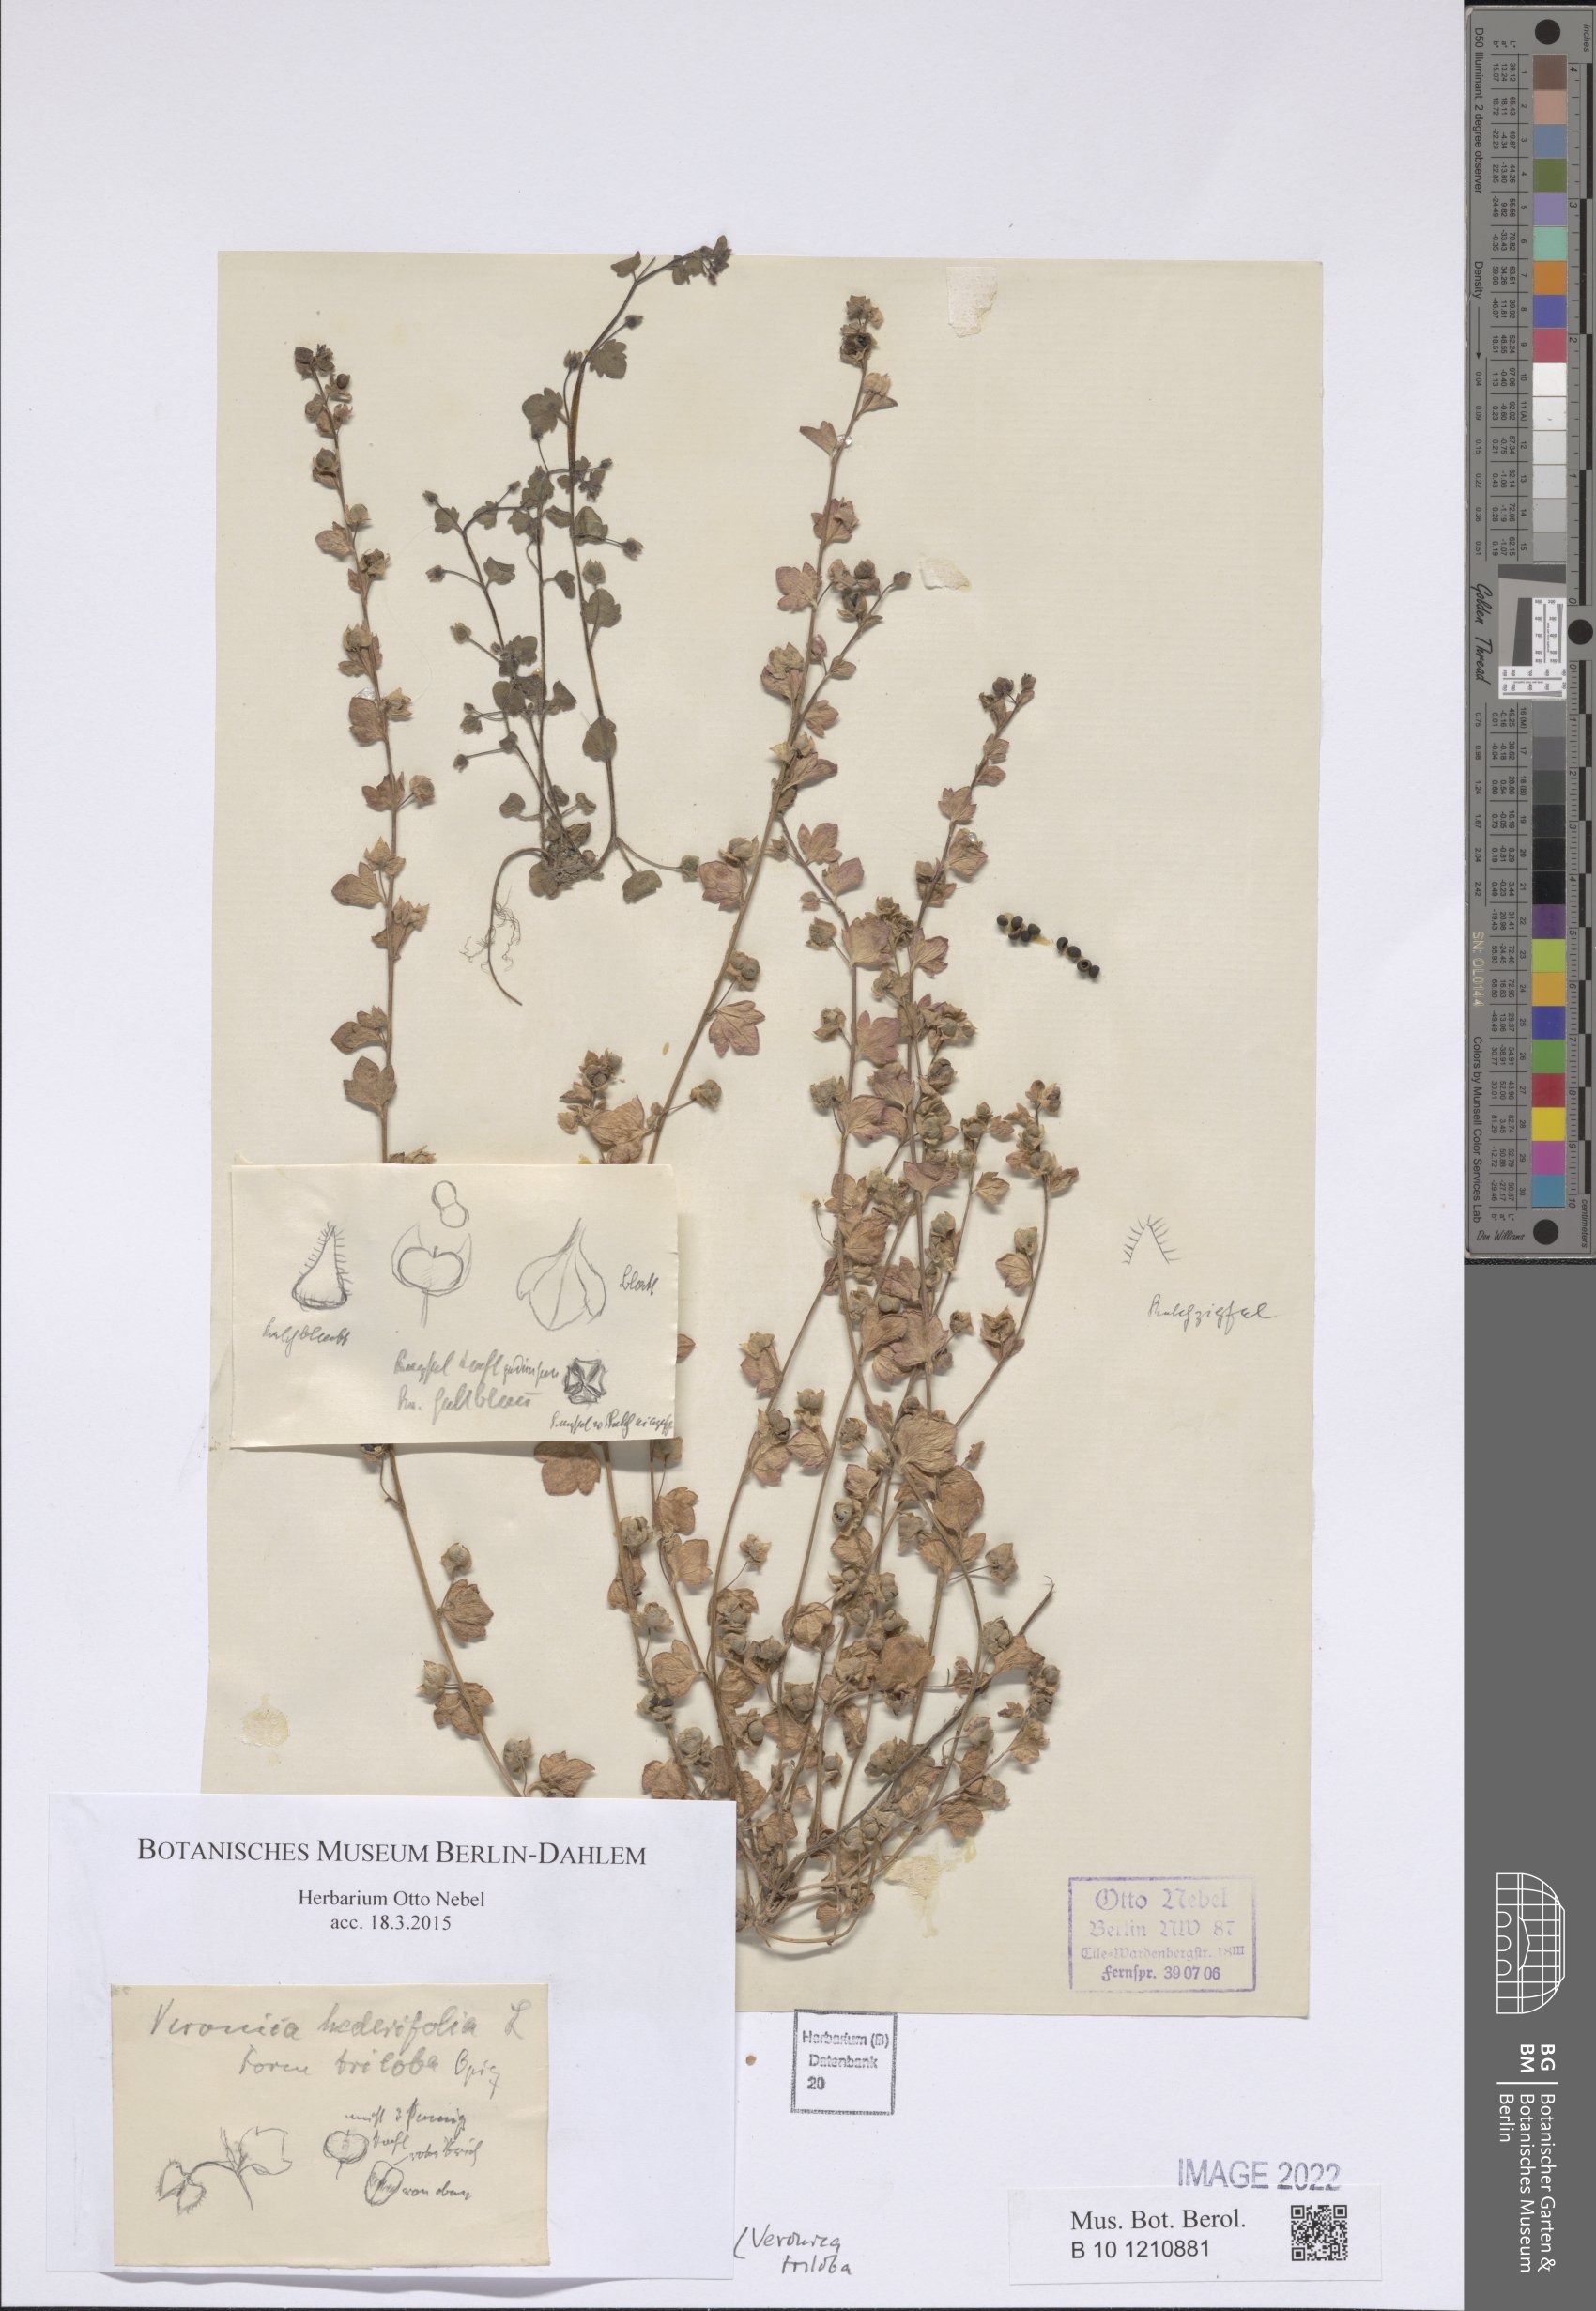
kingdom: Plantae
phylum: Tracheophyta
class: Magnoliopsida
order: Lamiales
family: Plantaginaceae
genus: Veronica
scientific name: Veronica triloba
